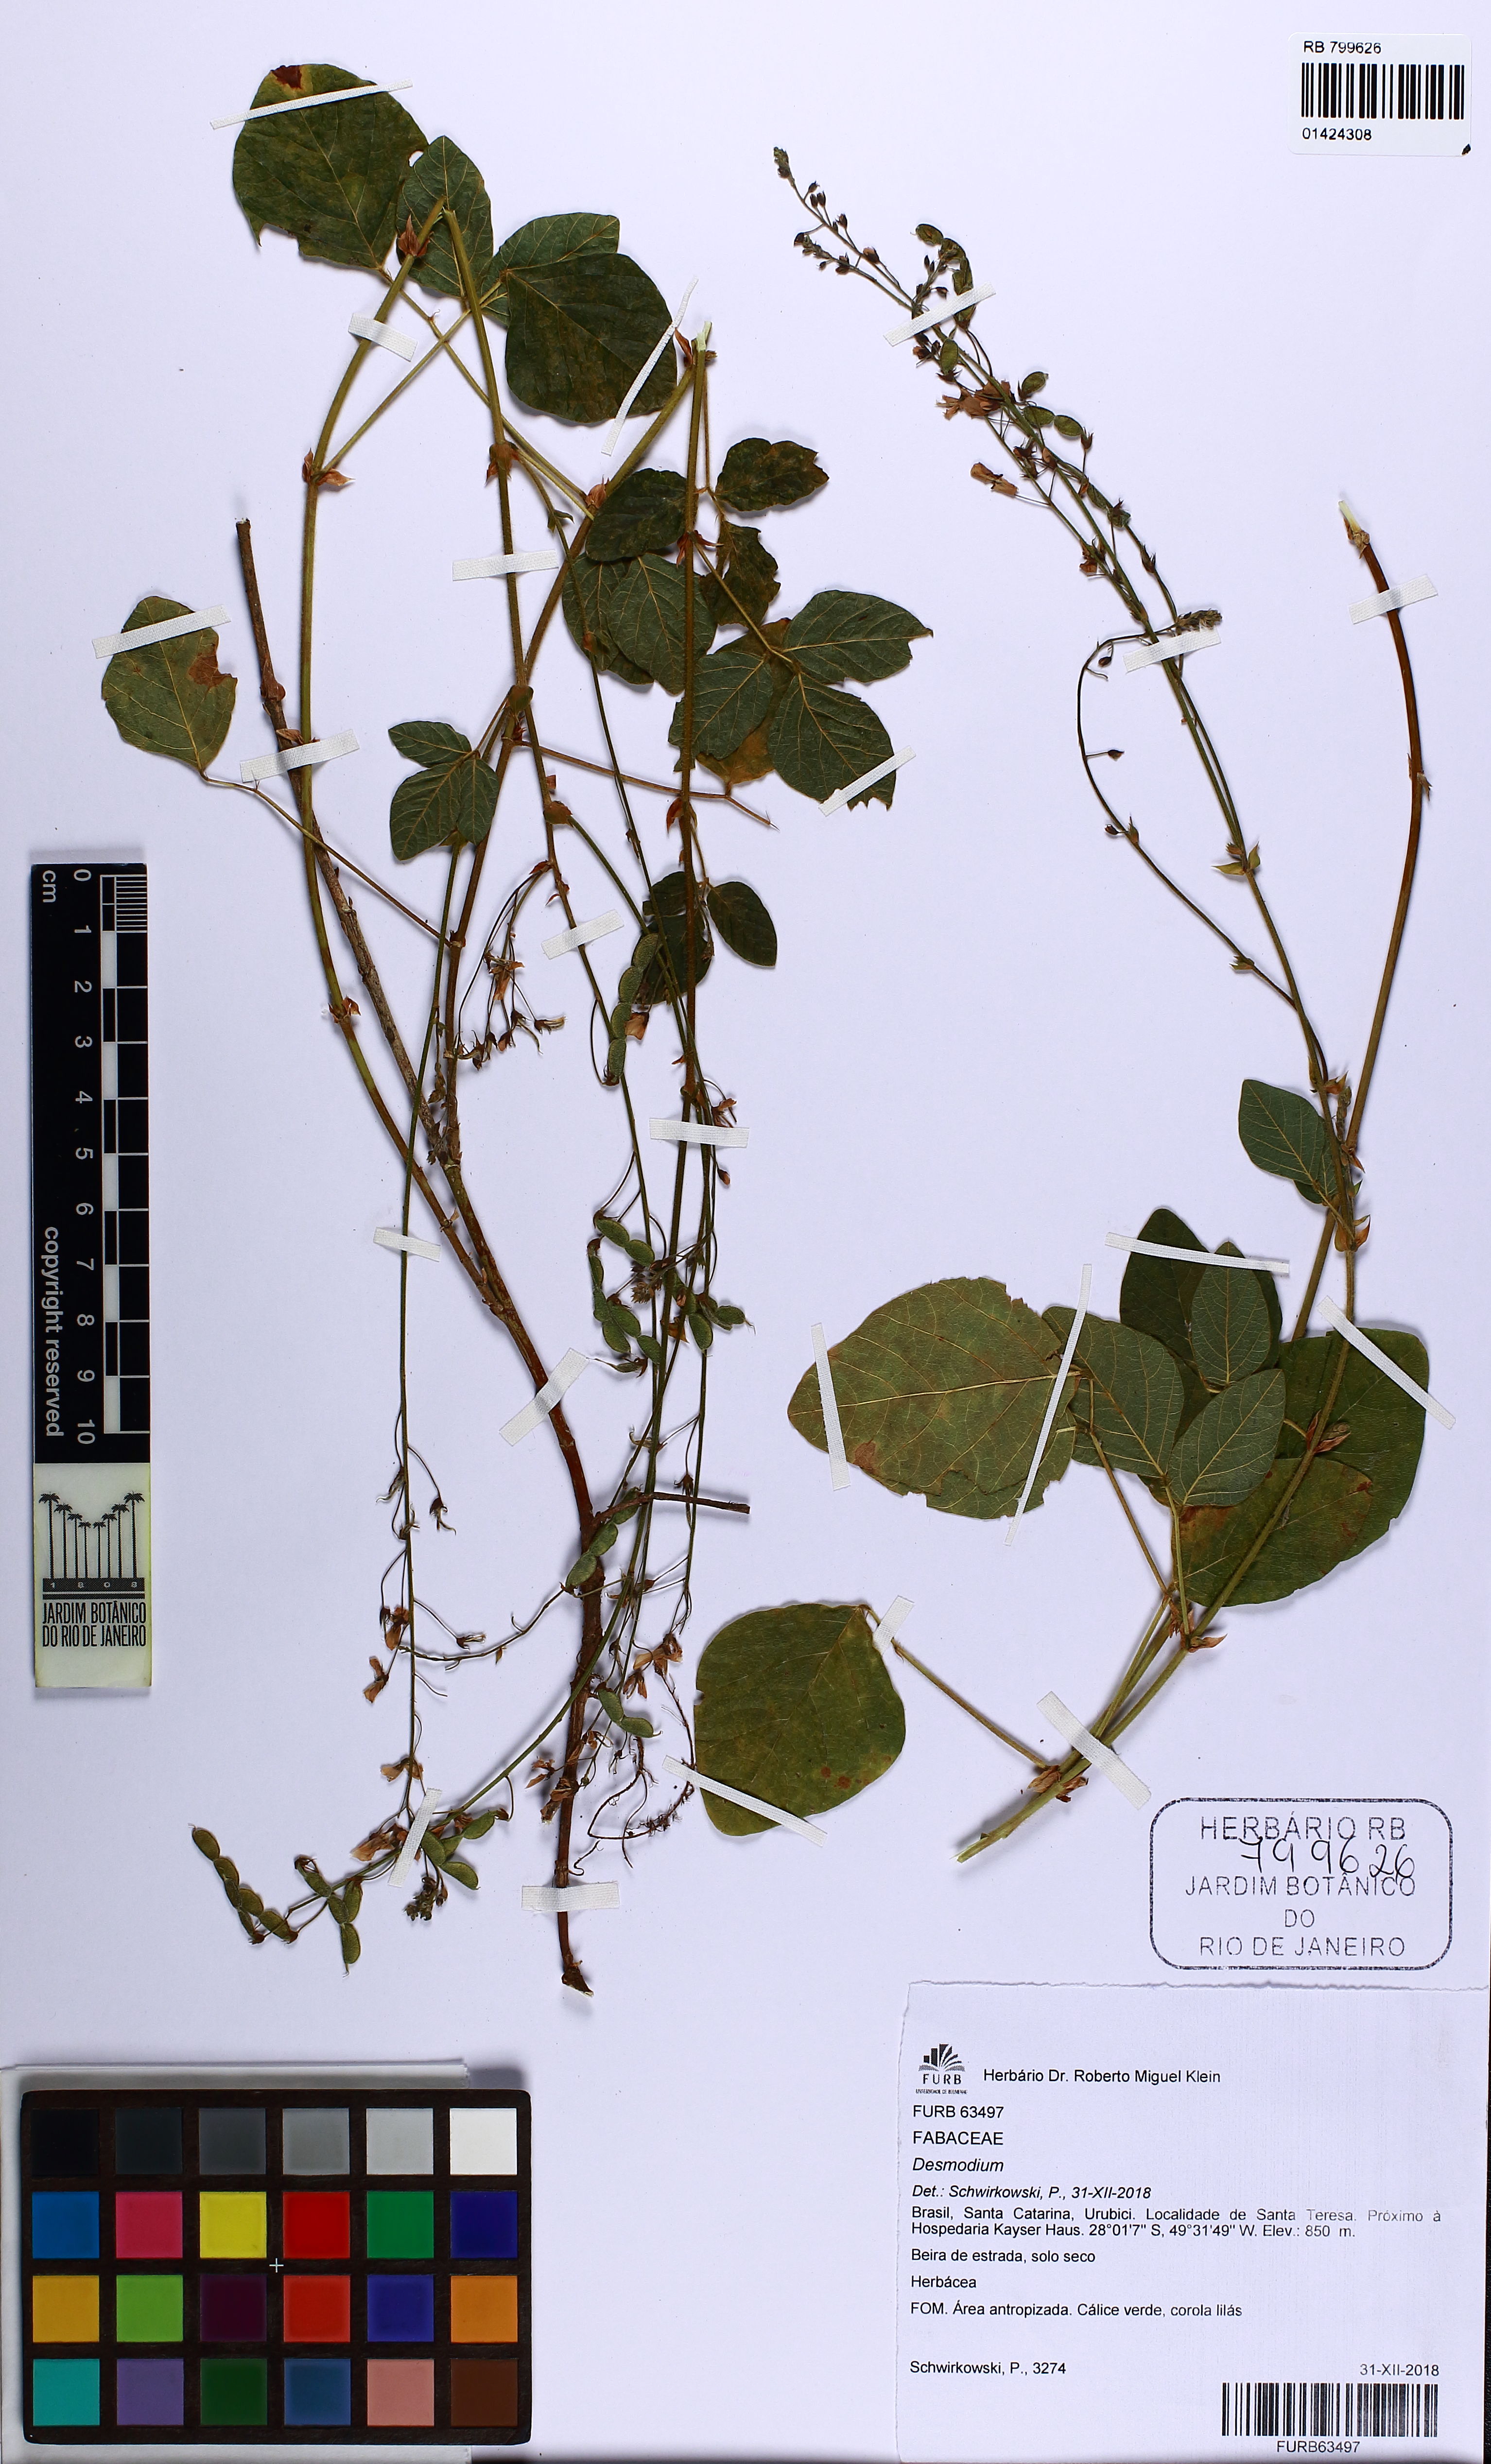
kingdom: Plantae
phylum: Tracheophyta
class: Magnoliopsida
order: Fabales
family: Fabaceae
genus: Desmodium
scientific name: Desmodium subsecundum
